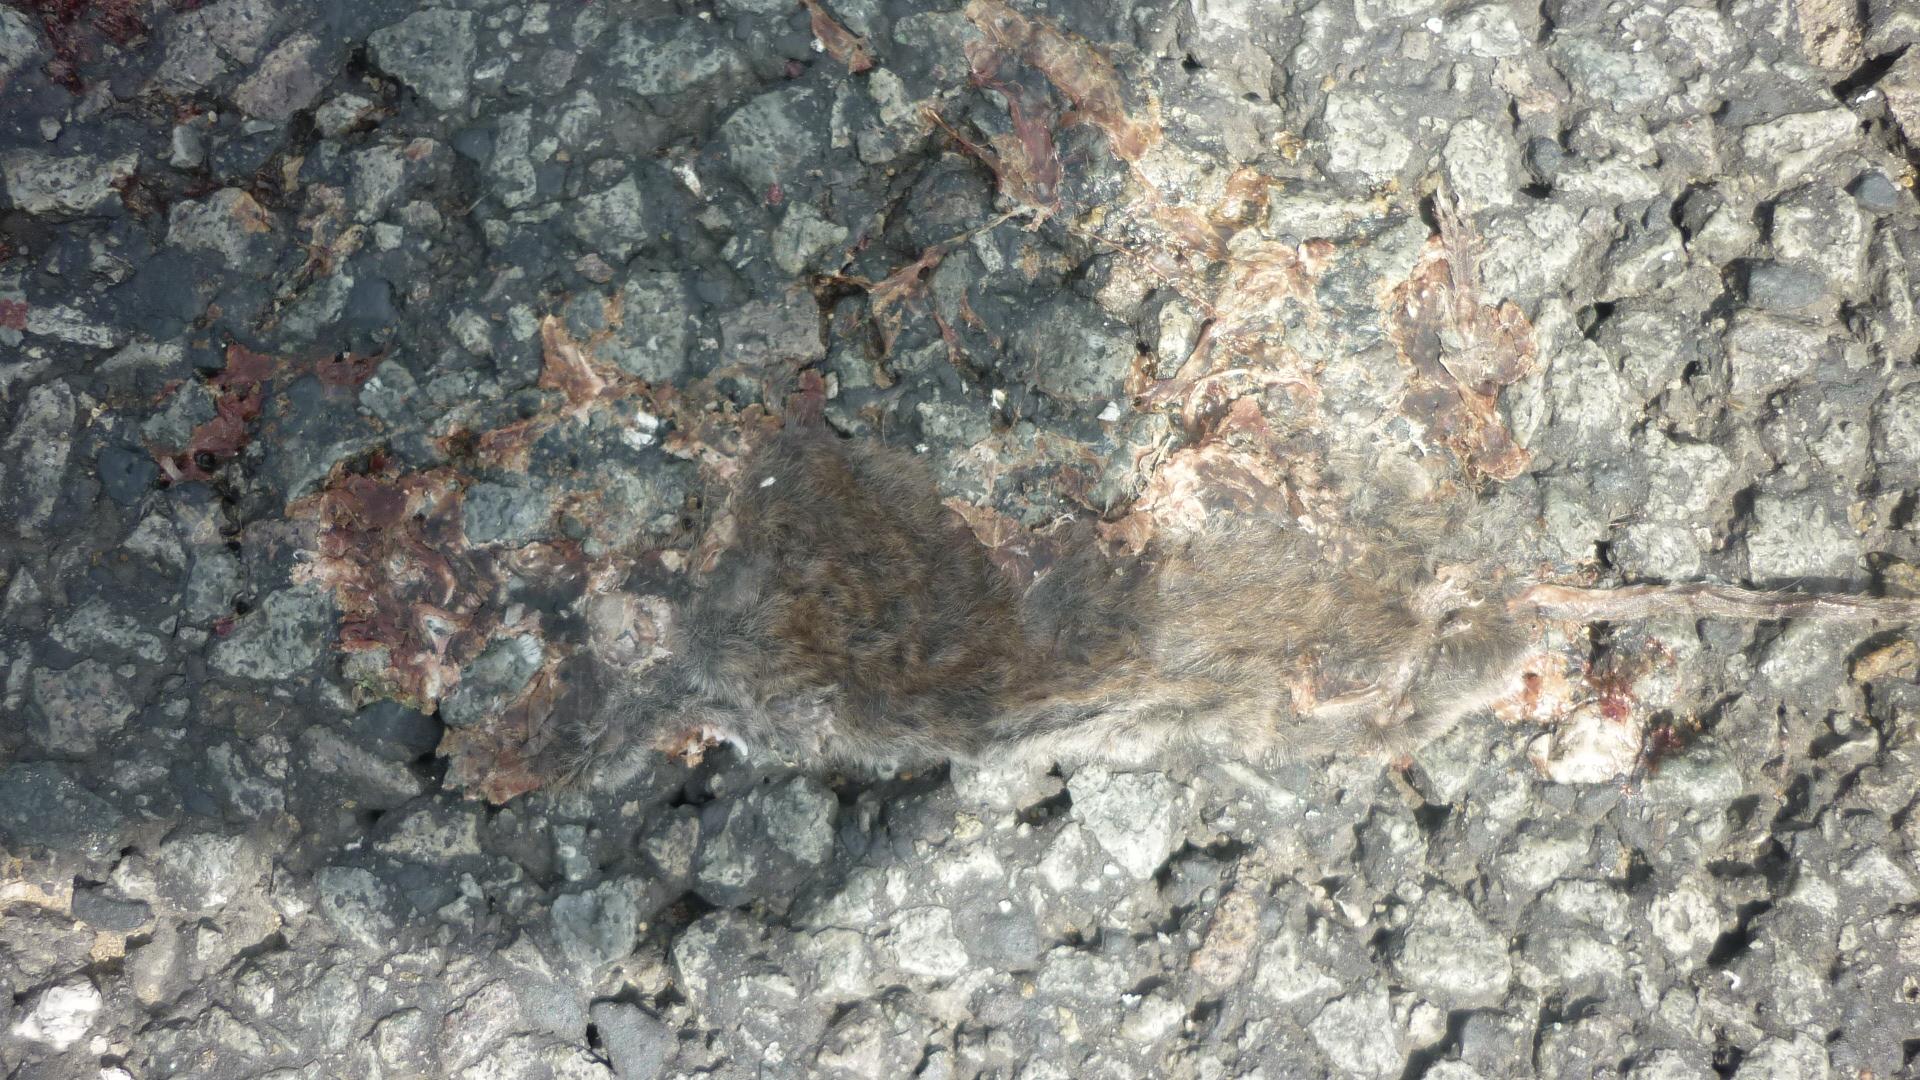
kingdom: Animalia
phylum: Chordata
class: Mammalia
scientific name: Mammalia
